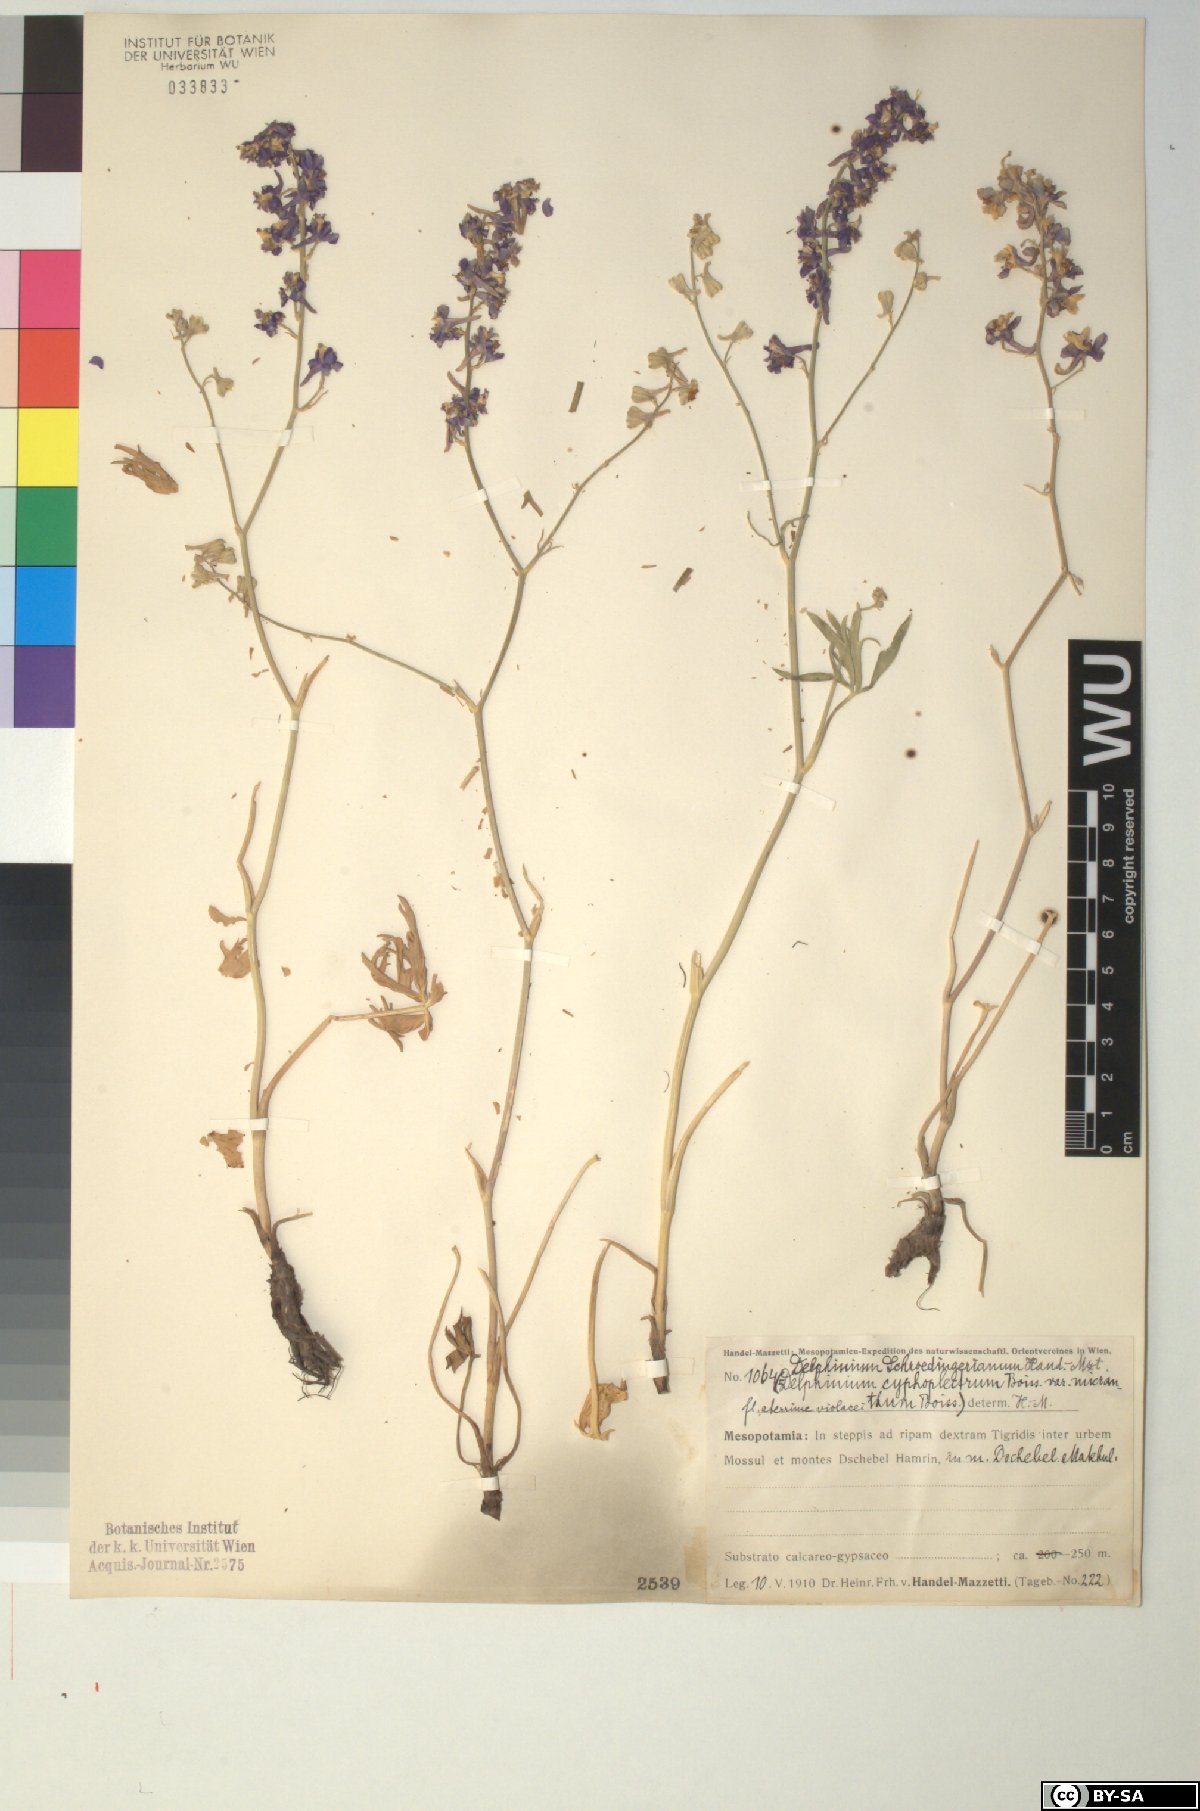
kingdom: Plantae
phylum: Tracheophyta
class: Magnoliopsida
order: Ranunculales
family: Ranunculaceae
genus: Delphinium
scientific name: Delphinium cyphoplectrum
